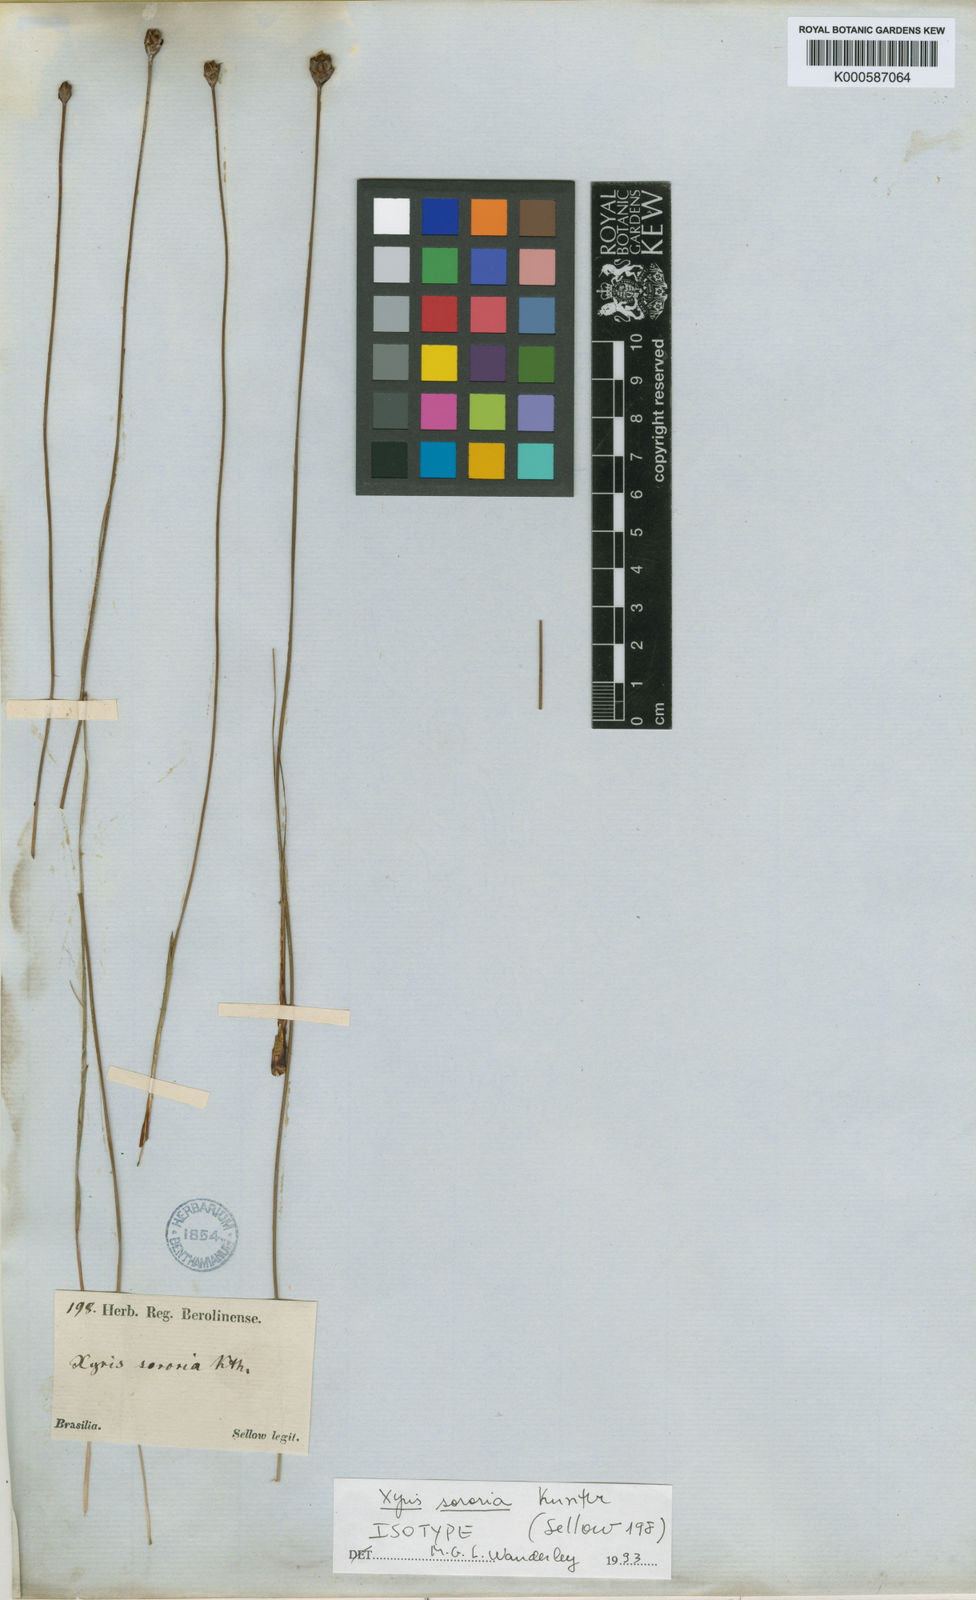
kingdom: Plantae
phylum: Tracheophyta
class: Liliopsida
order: Poales
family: Xyridaceae
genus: Xyris
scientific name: Xyris sororia
